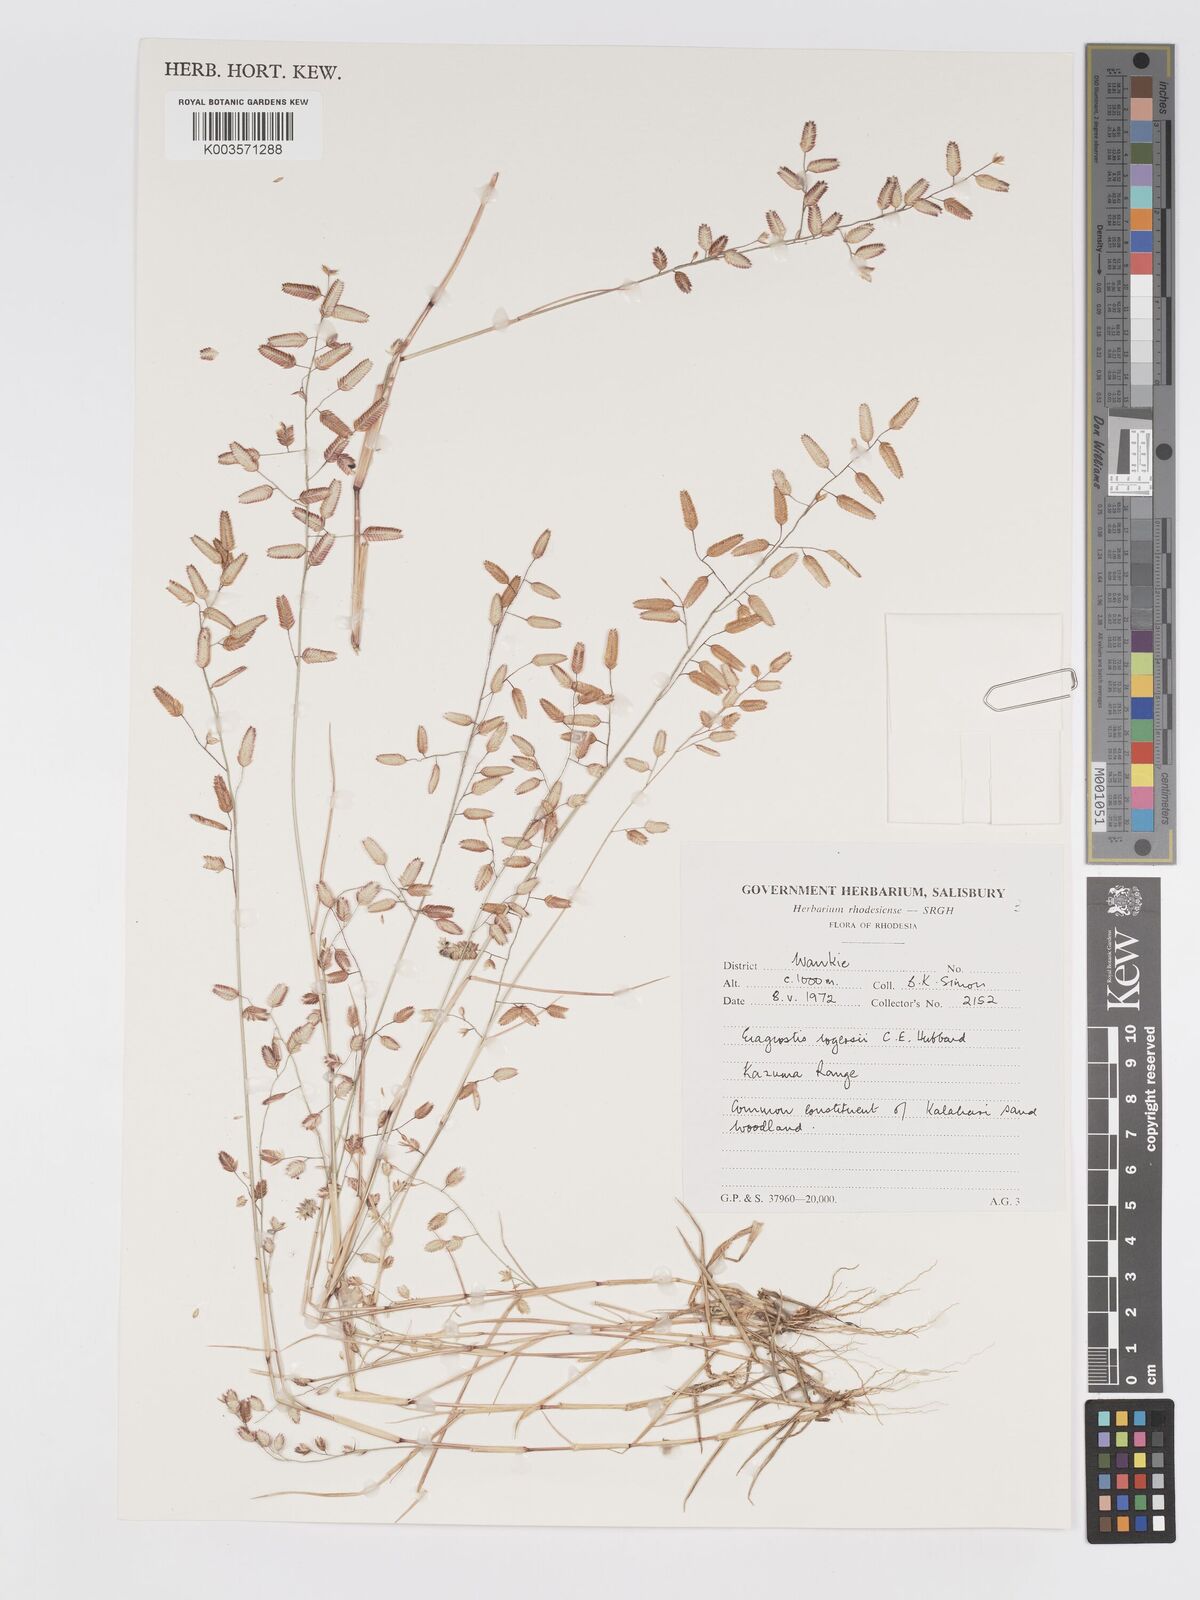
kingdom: Plantae
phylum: Tracheophyta
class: Liliopsida
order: Poales
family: Poaceae
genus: Eragrostis
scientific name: Eragrostis rogersii
